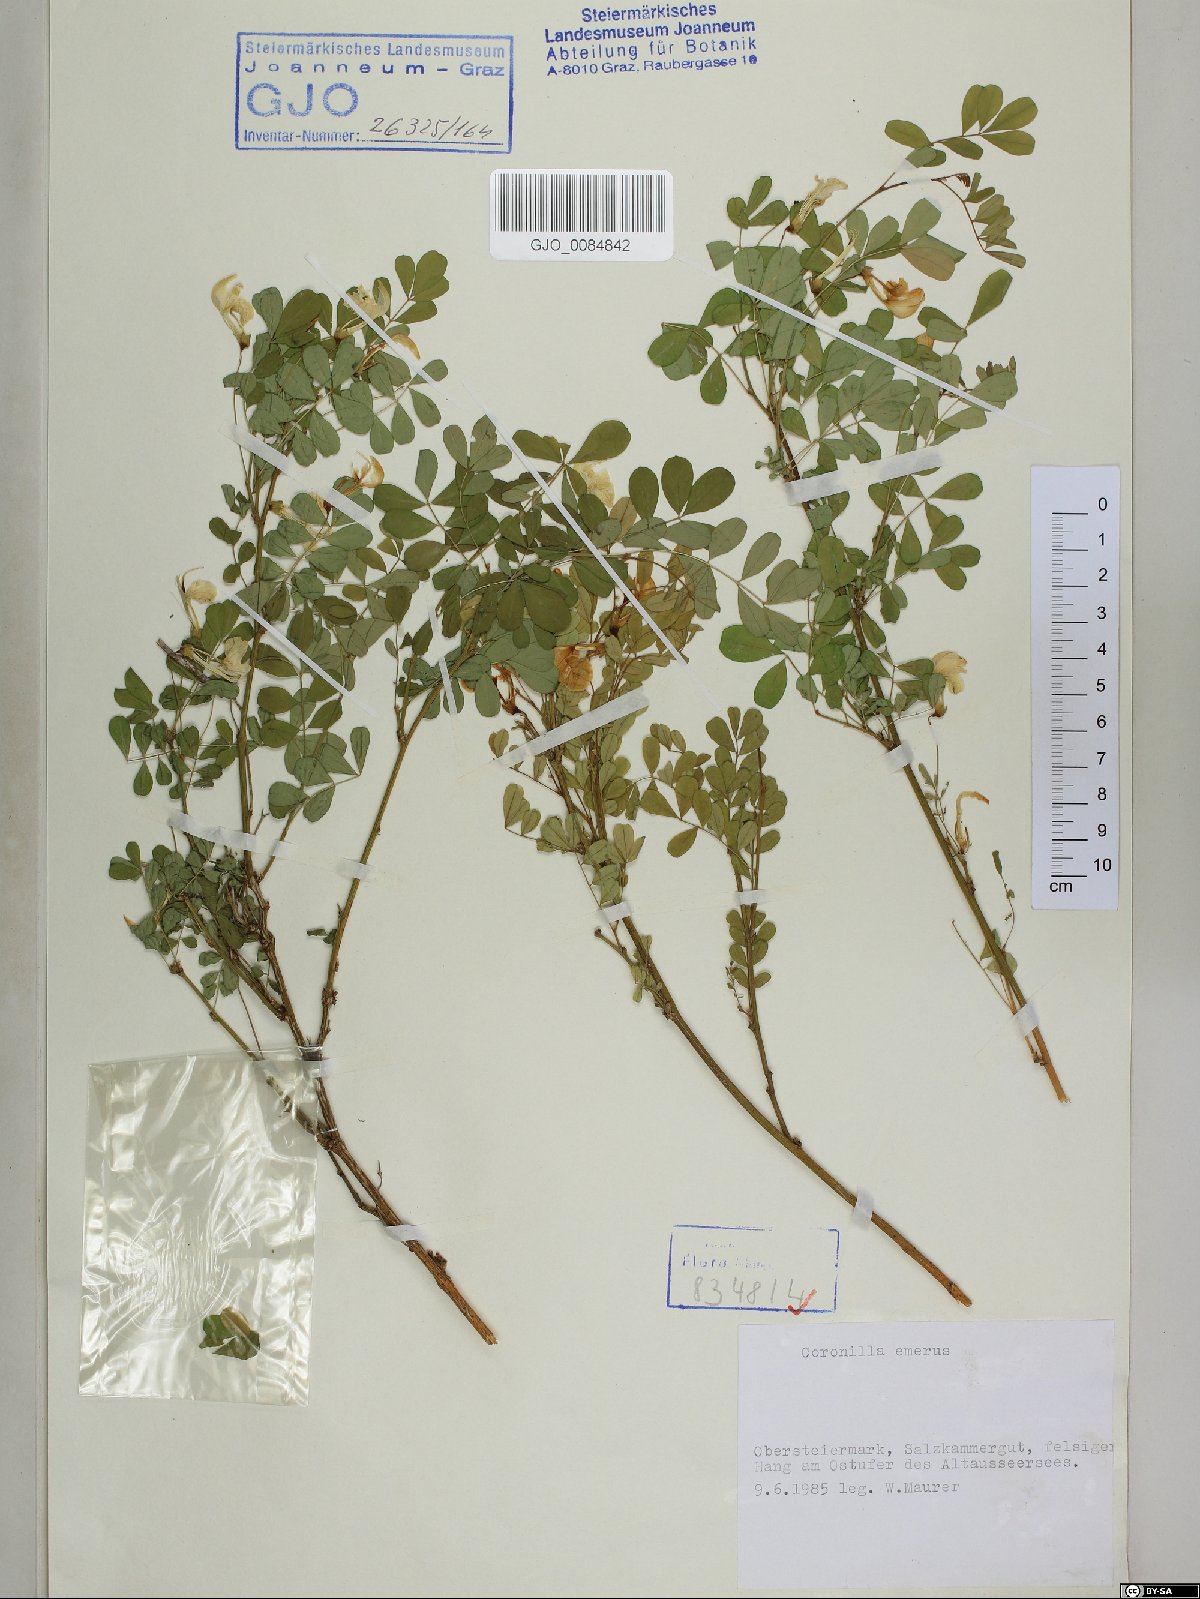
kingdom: Plantae
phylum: Tracheophyta
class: Magnoliopsida
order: Fabales
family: Fabaceae
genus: Hippocrepis
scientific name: Hippocrepis emerus
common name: Scorpion senna
